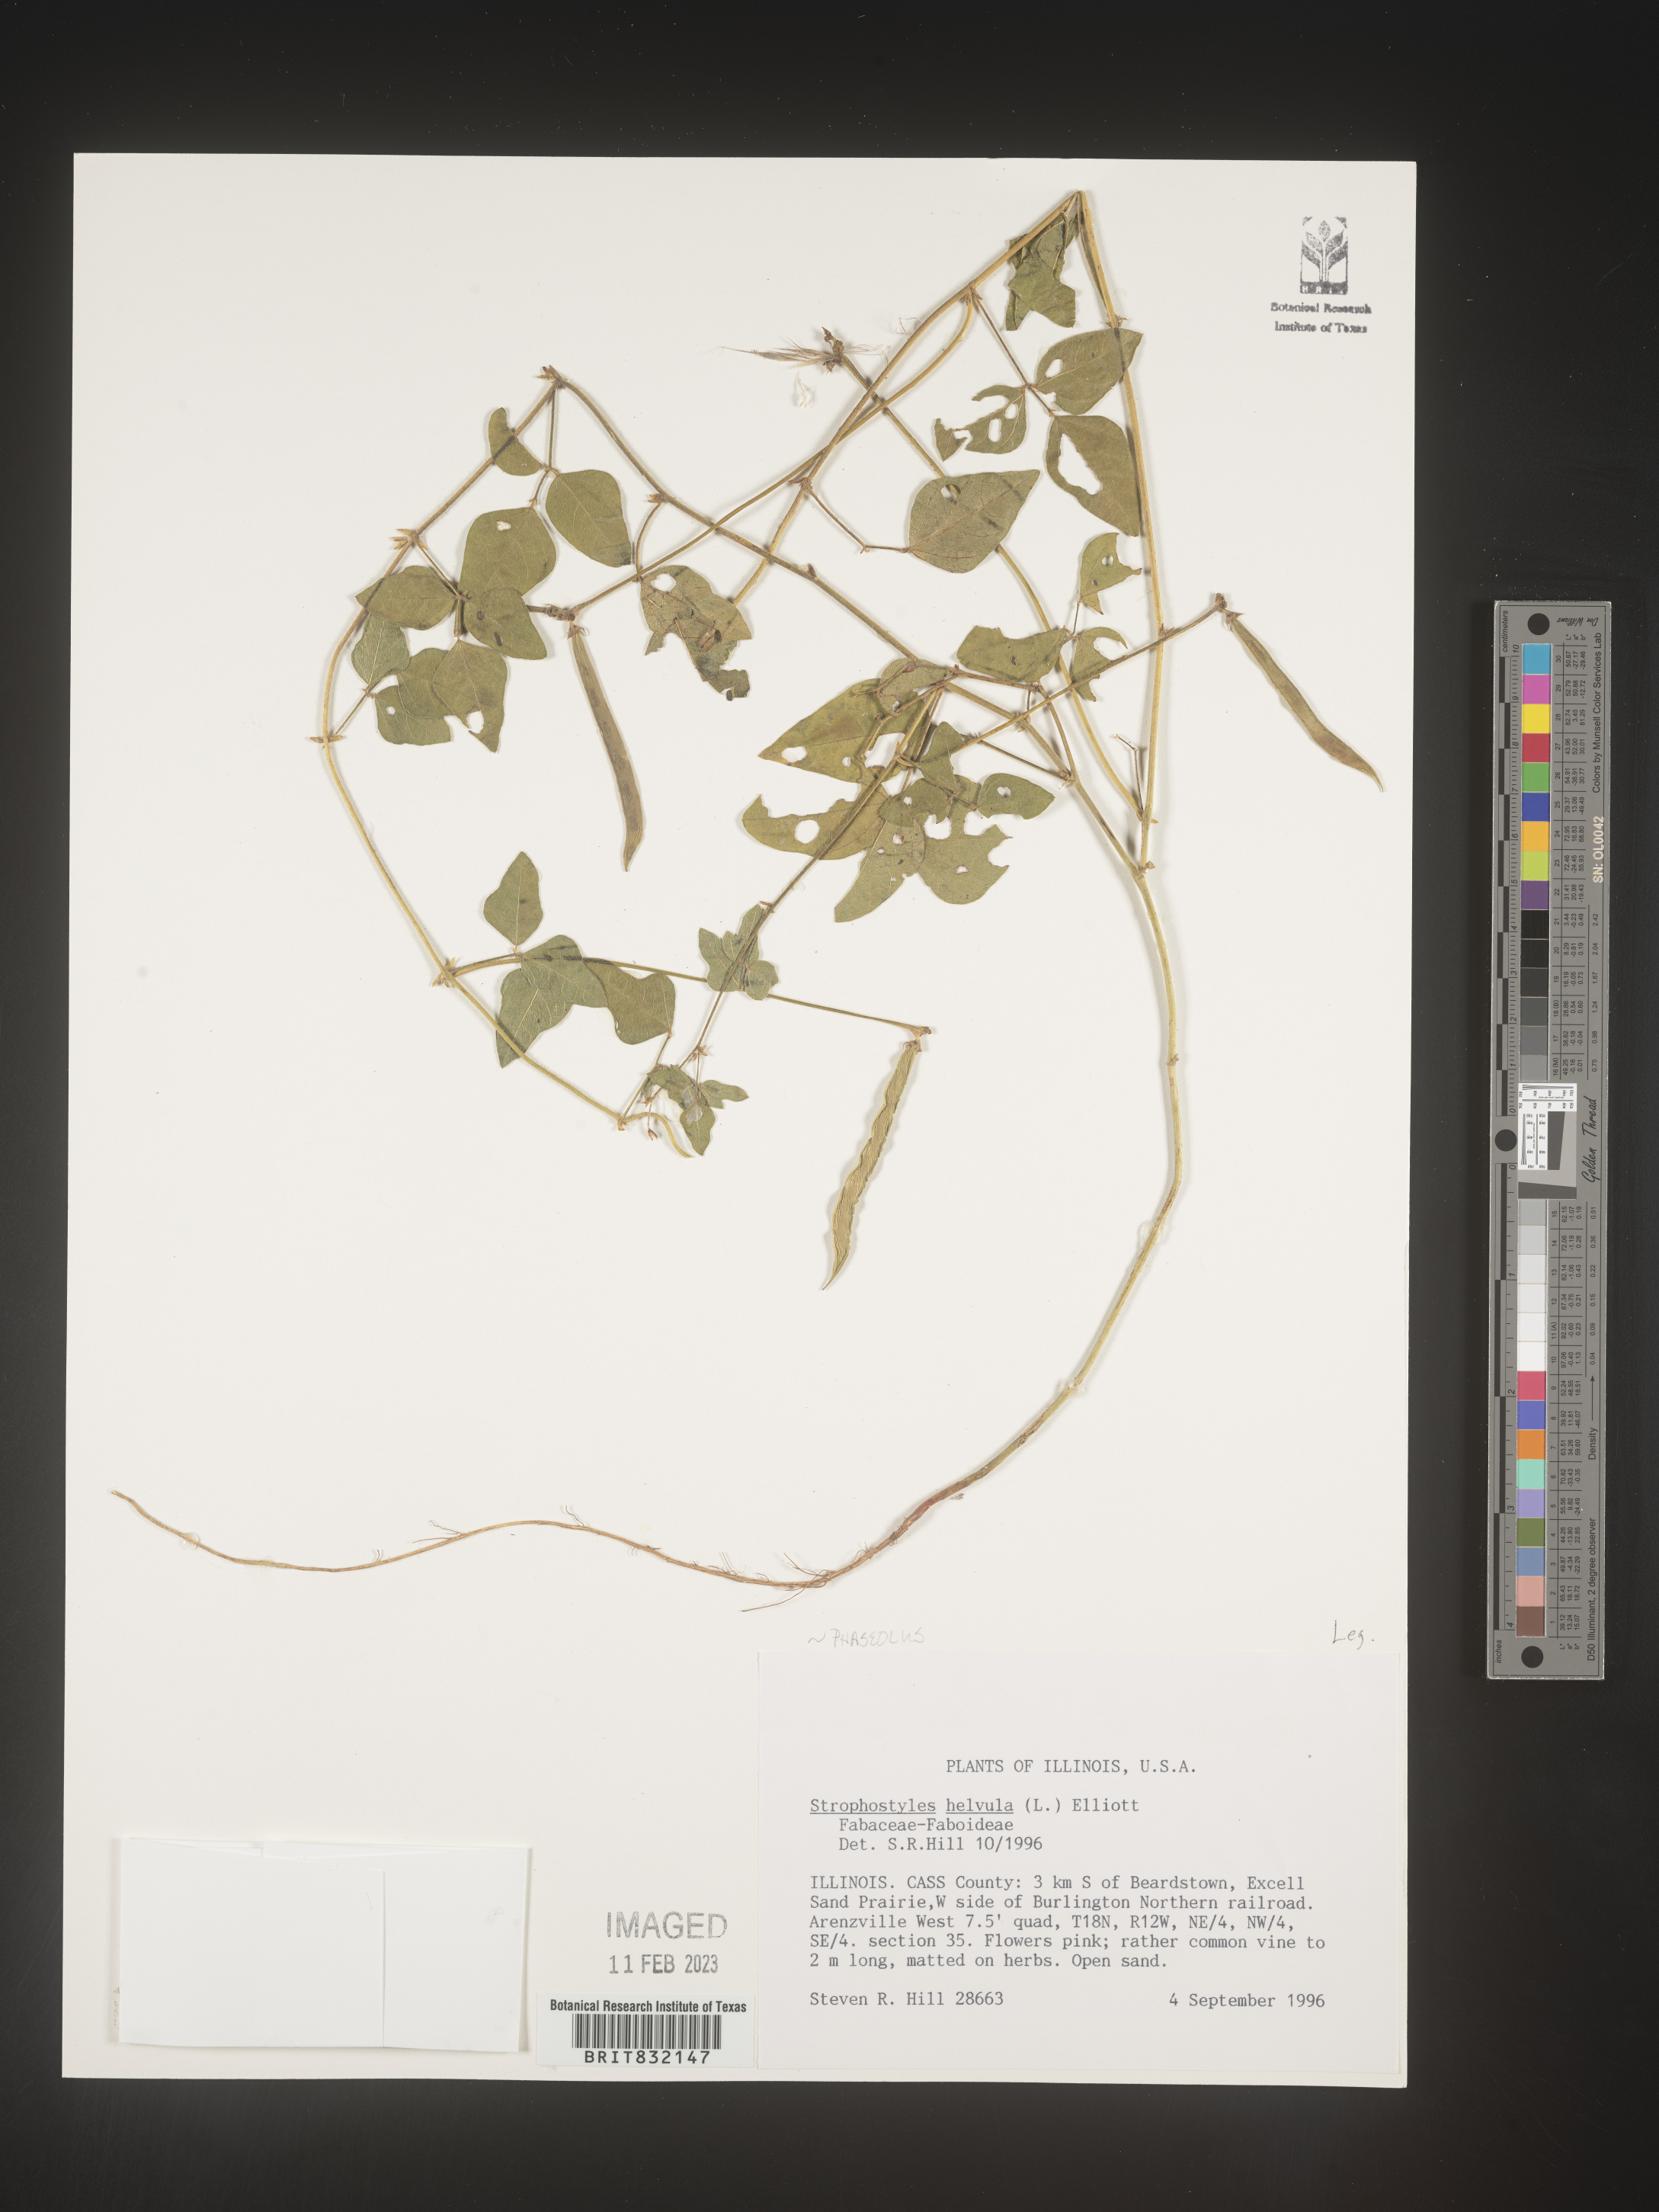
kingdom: Plantae
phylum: Tracheophyta
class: Magnoliopsida
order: Fabales
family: Fabaceae
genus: Strophostyles
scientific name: Strophostyles helvola
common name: Trailing wild bean
